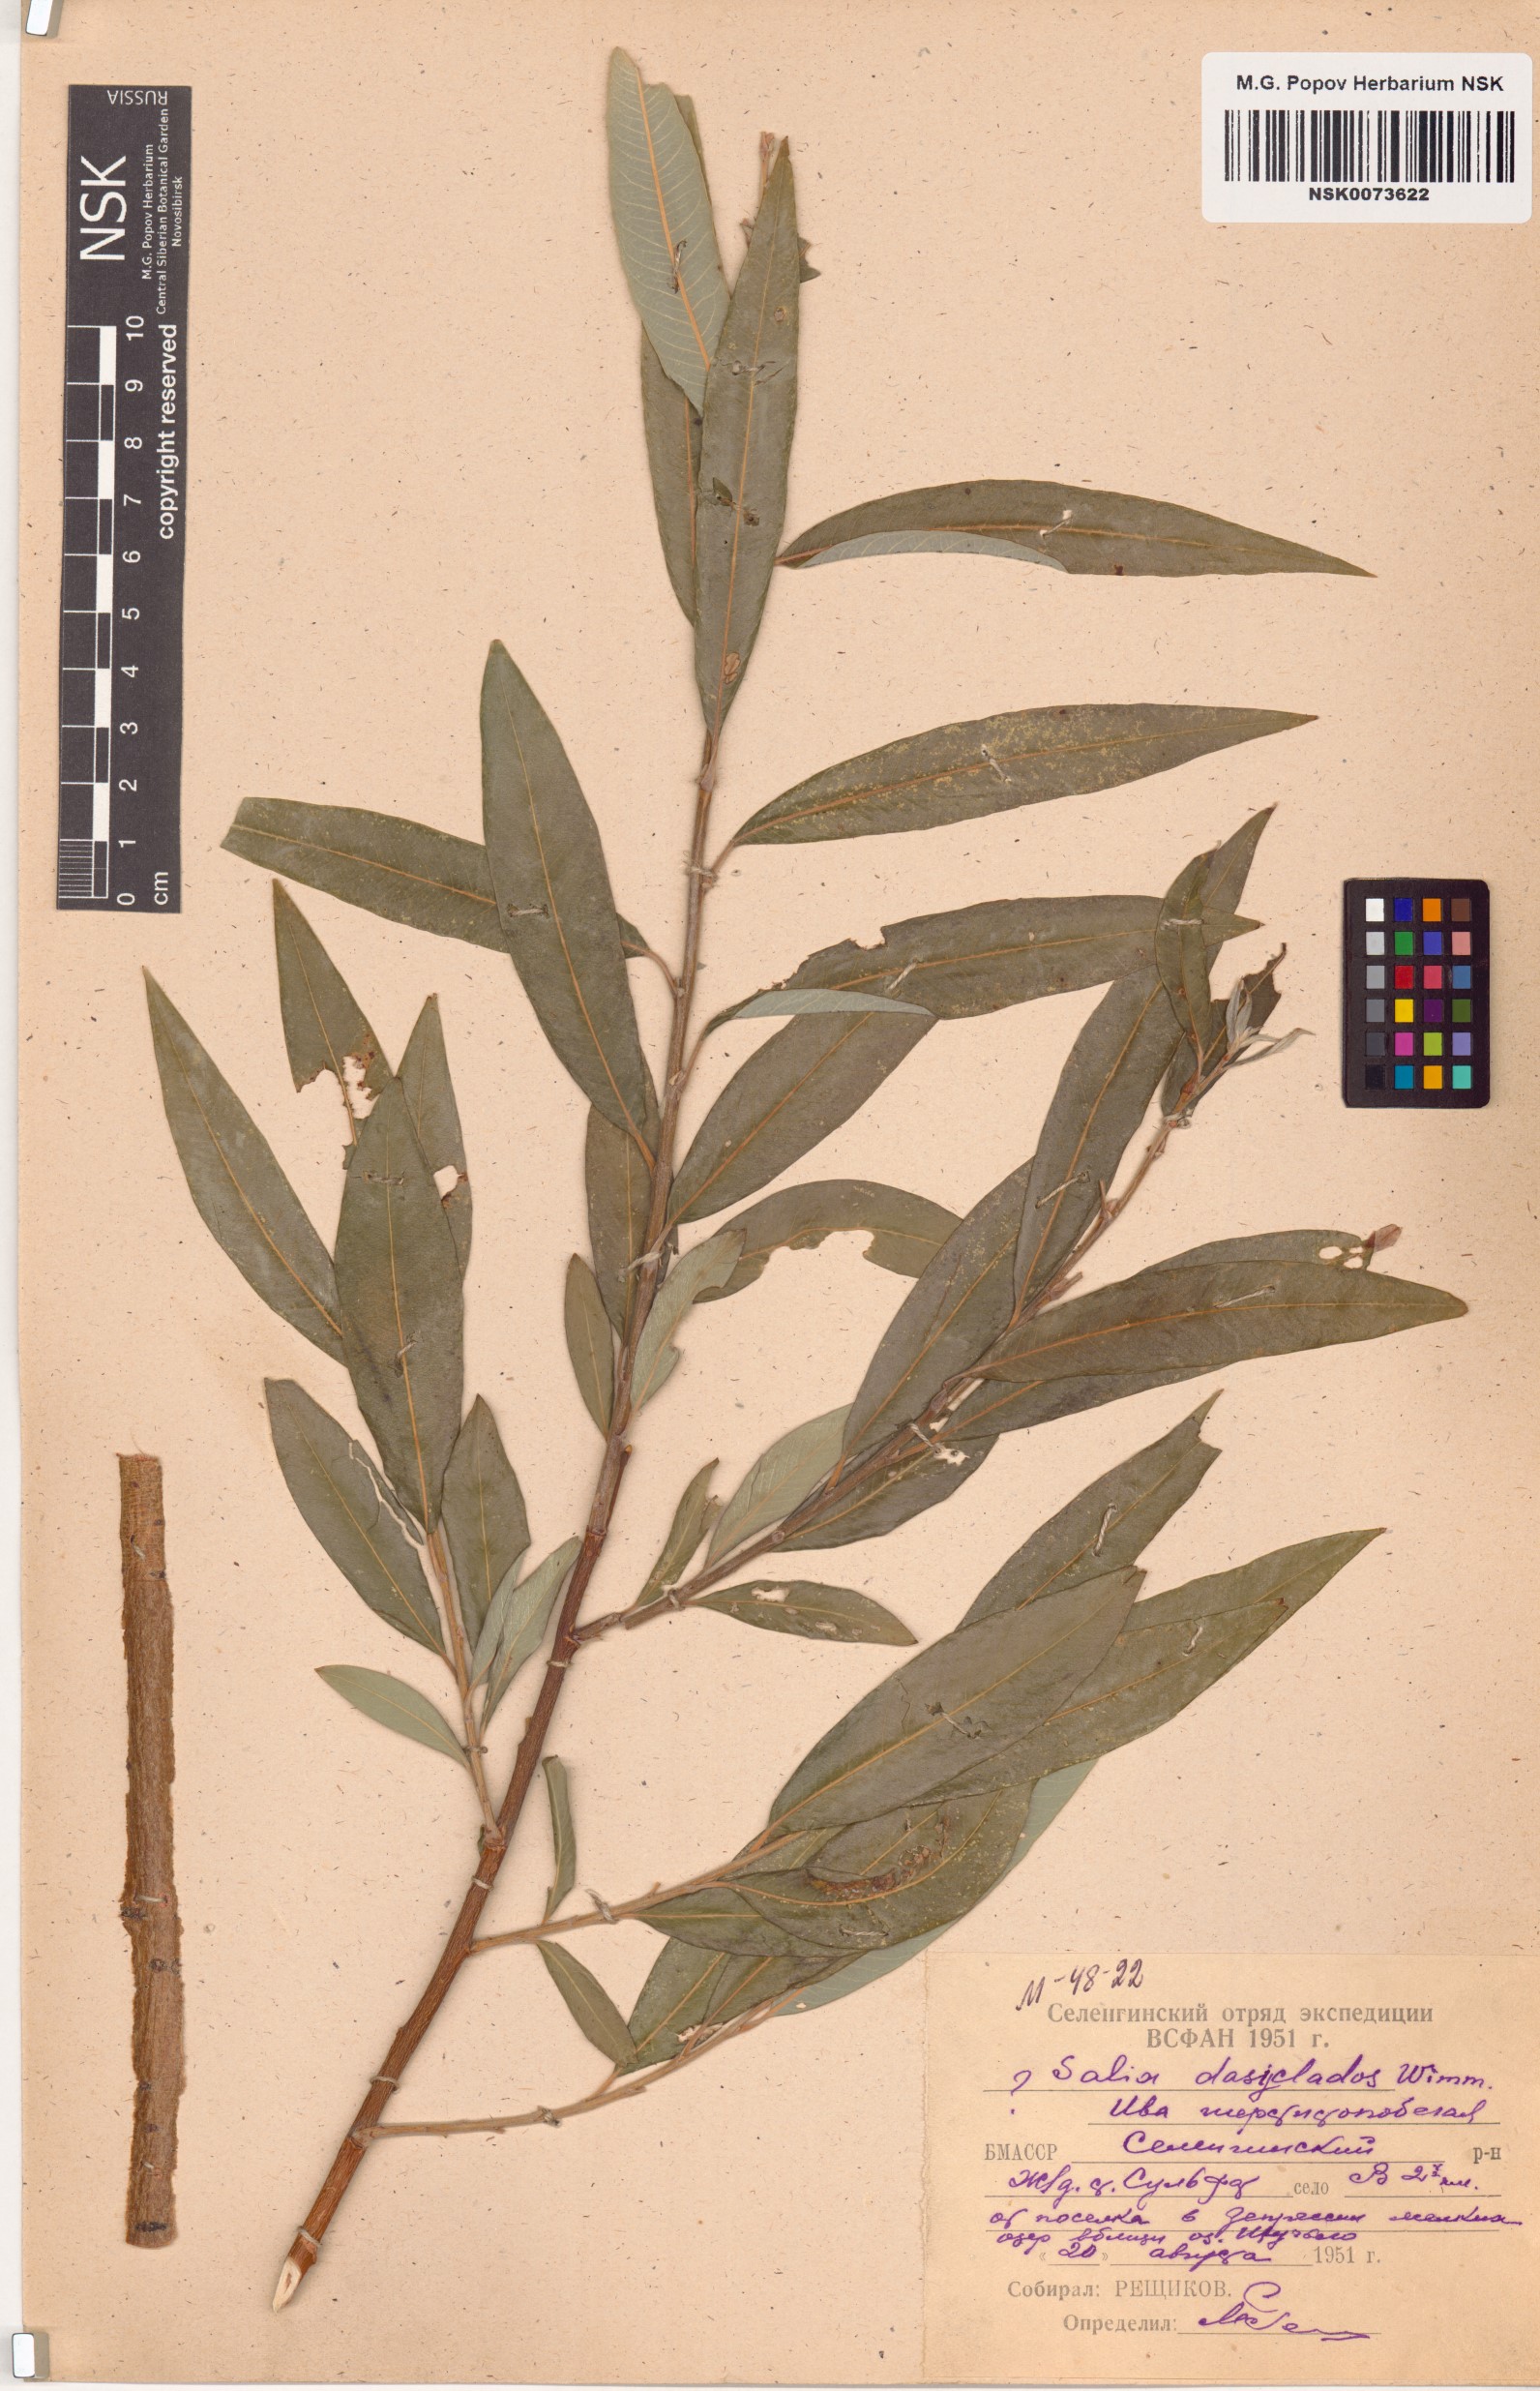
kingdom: Plantae
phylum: Tracheophyta
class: Magnoliopsida
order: Malpighiales
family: Salicaceae
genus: Salix
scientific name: Salix gmelinii
